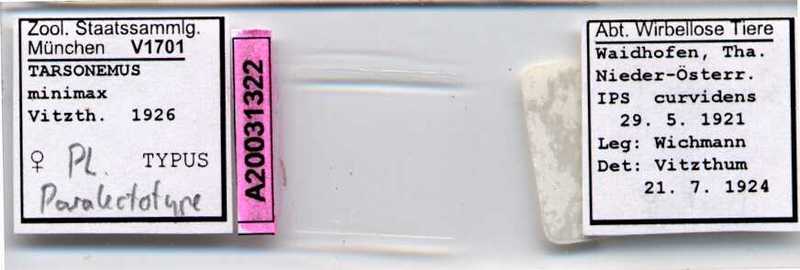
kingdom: Animalia
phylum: Arthropoda
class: Arachnida
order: Trombidiformes
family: Tarsonemidae
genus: Tarsonemus
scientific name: Tarsonemus minimax
